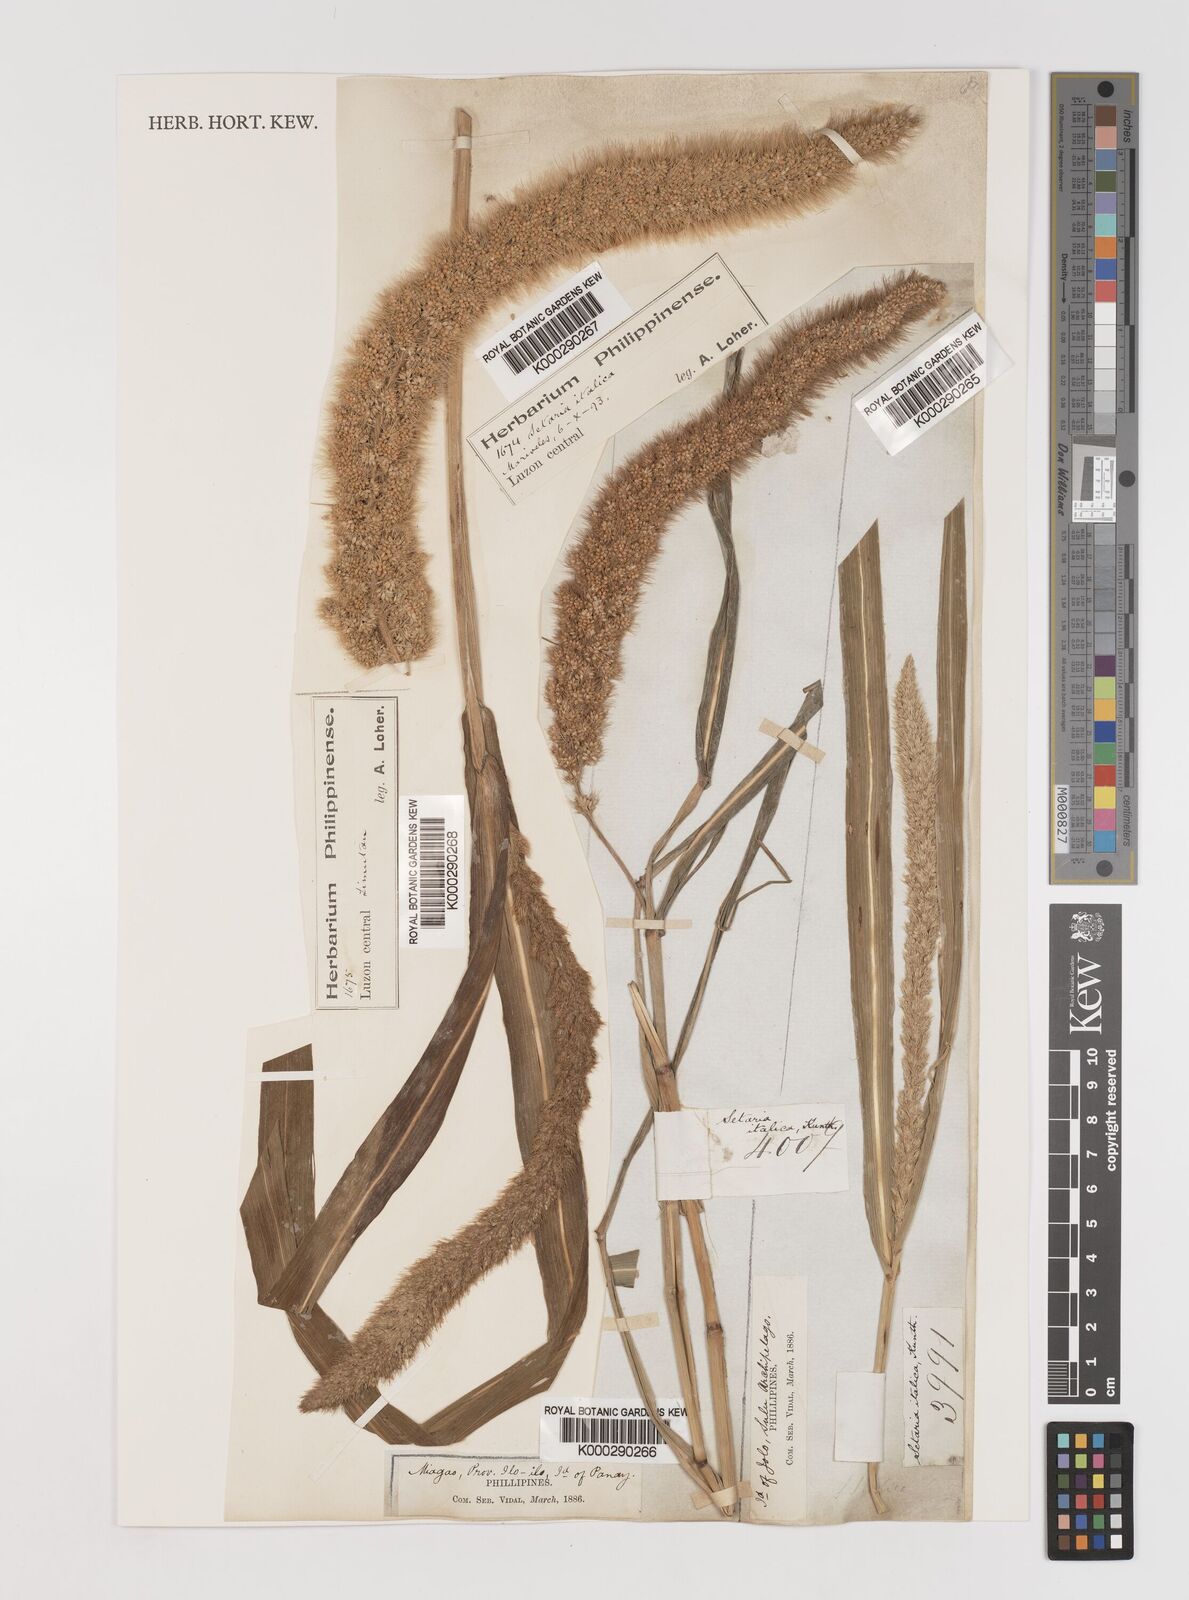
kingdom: Plantae
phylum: Tracheophyta
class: Liliopsida
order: Poales
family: Poaceae
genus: Setaria
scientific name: Setaria viridis
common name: Green bristlegrass
